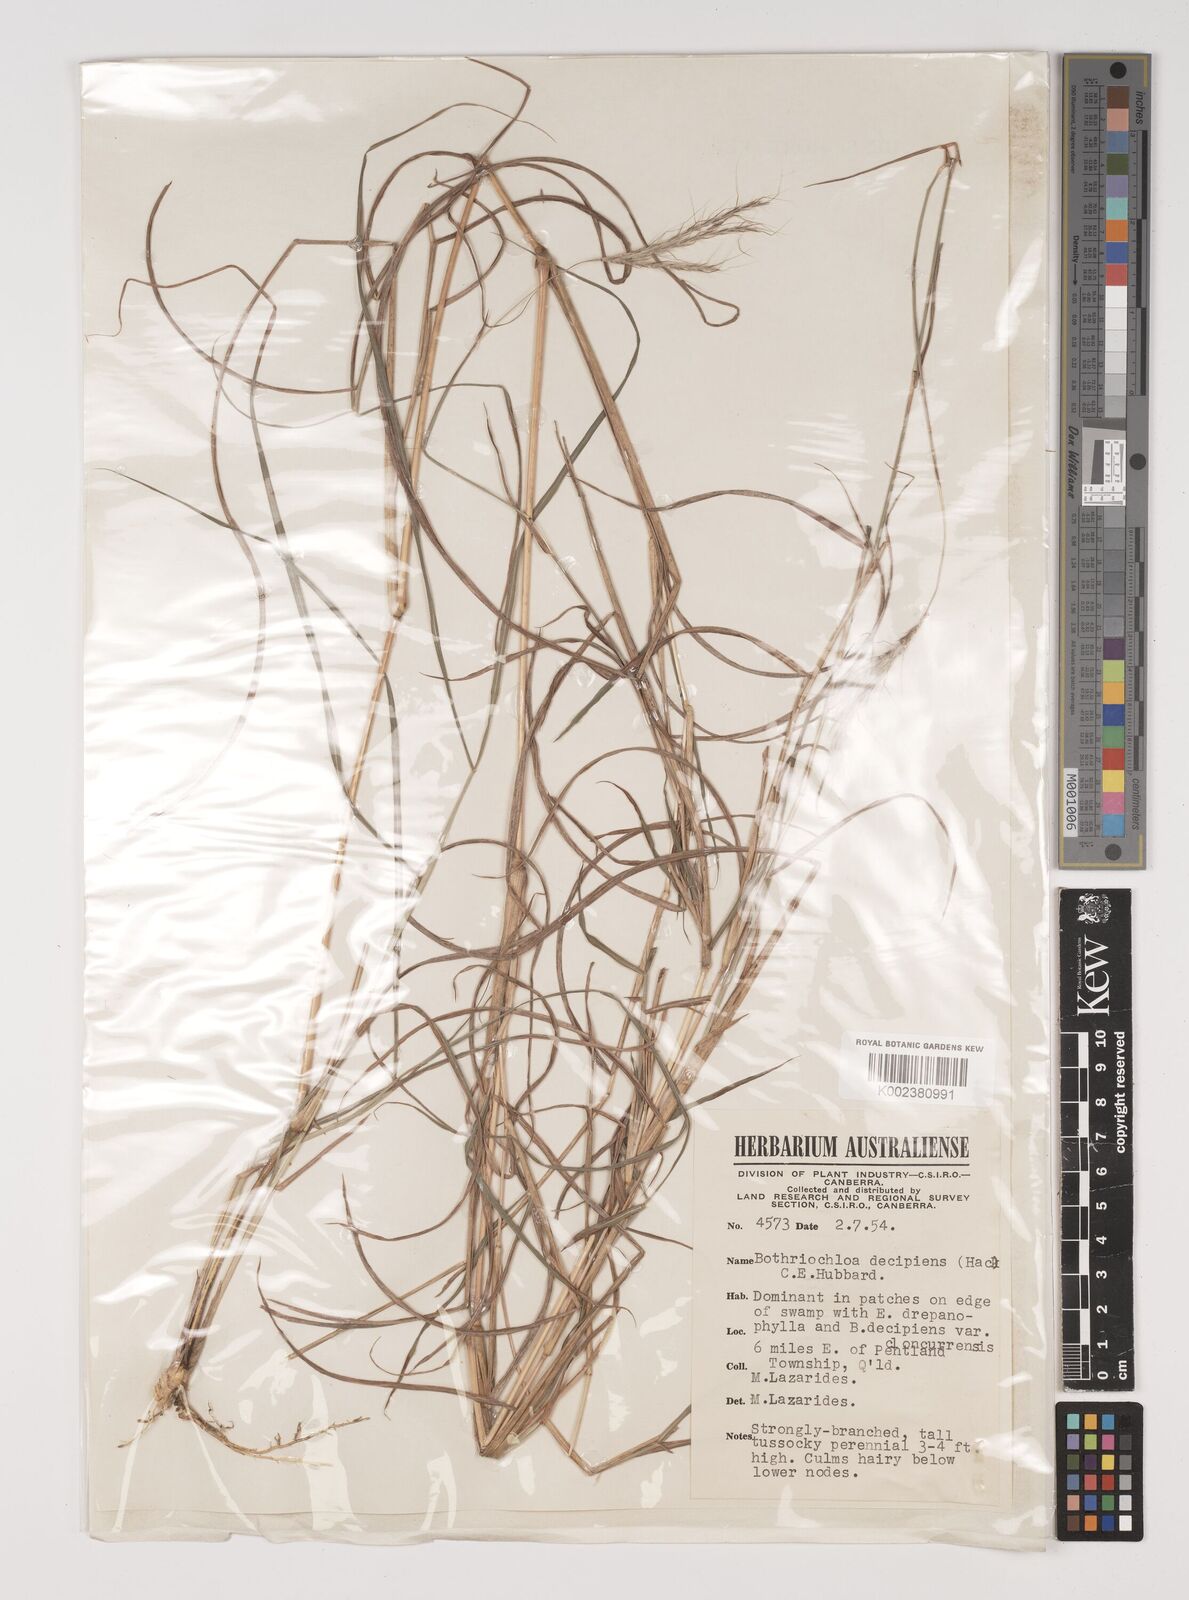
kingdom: Plantae
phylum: Tracheophyta
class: Liliopsida
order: Poales
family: Poaceae
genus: Bothriochloa
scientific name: Bothriochloa decipiens
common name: Pitted-bluegrass
